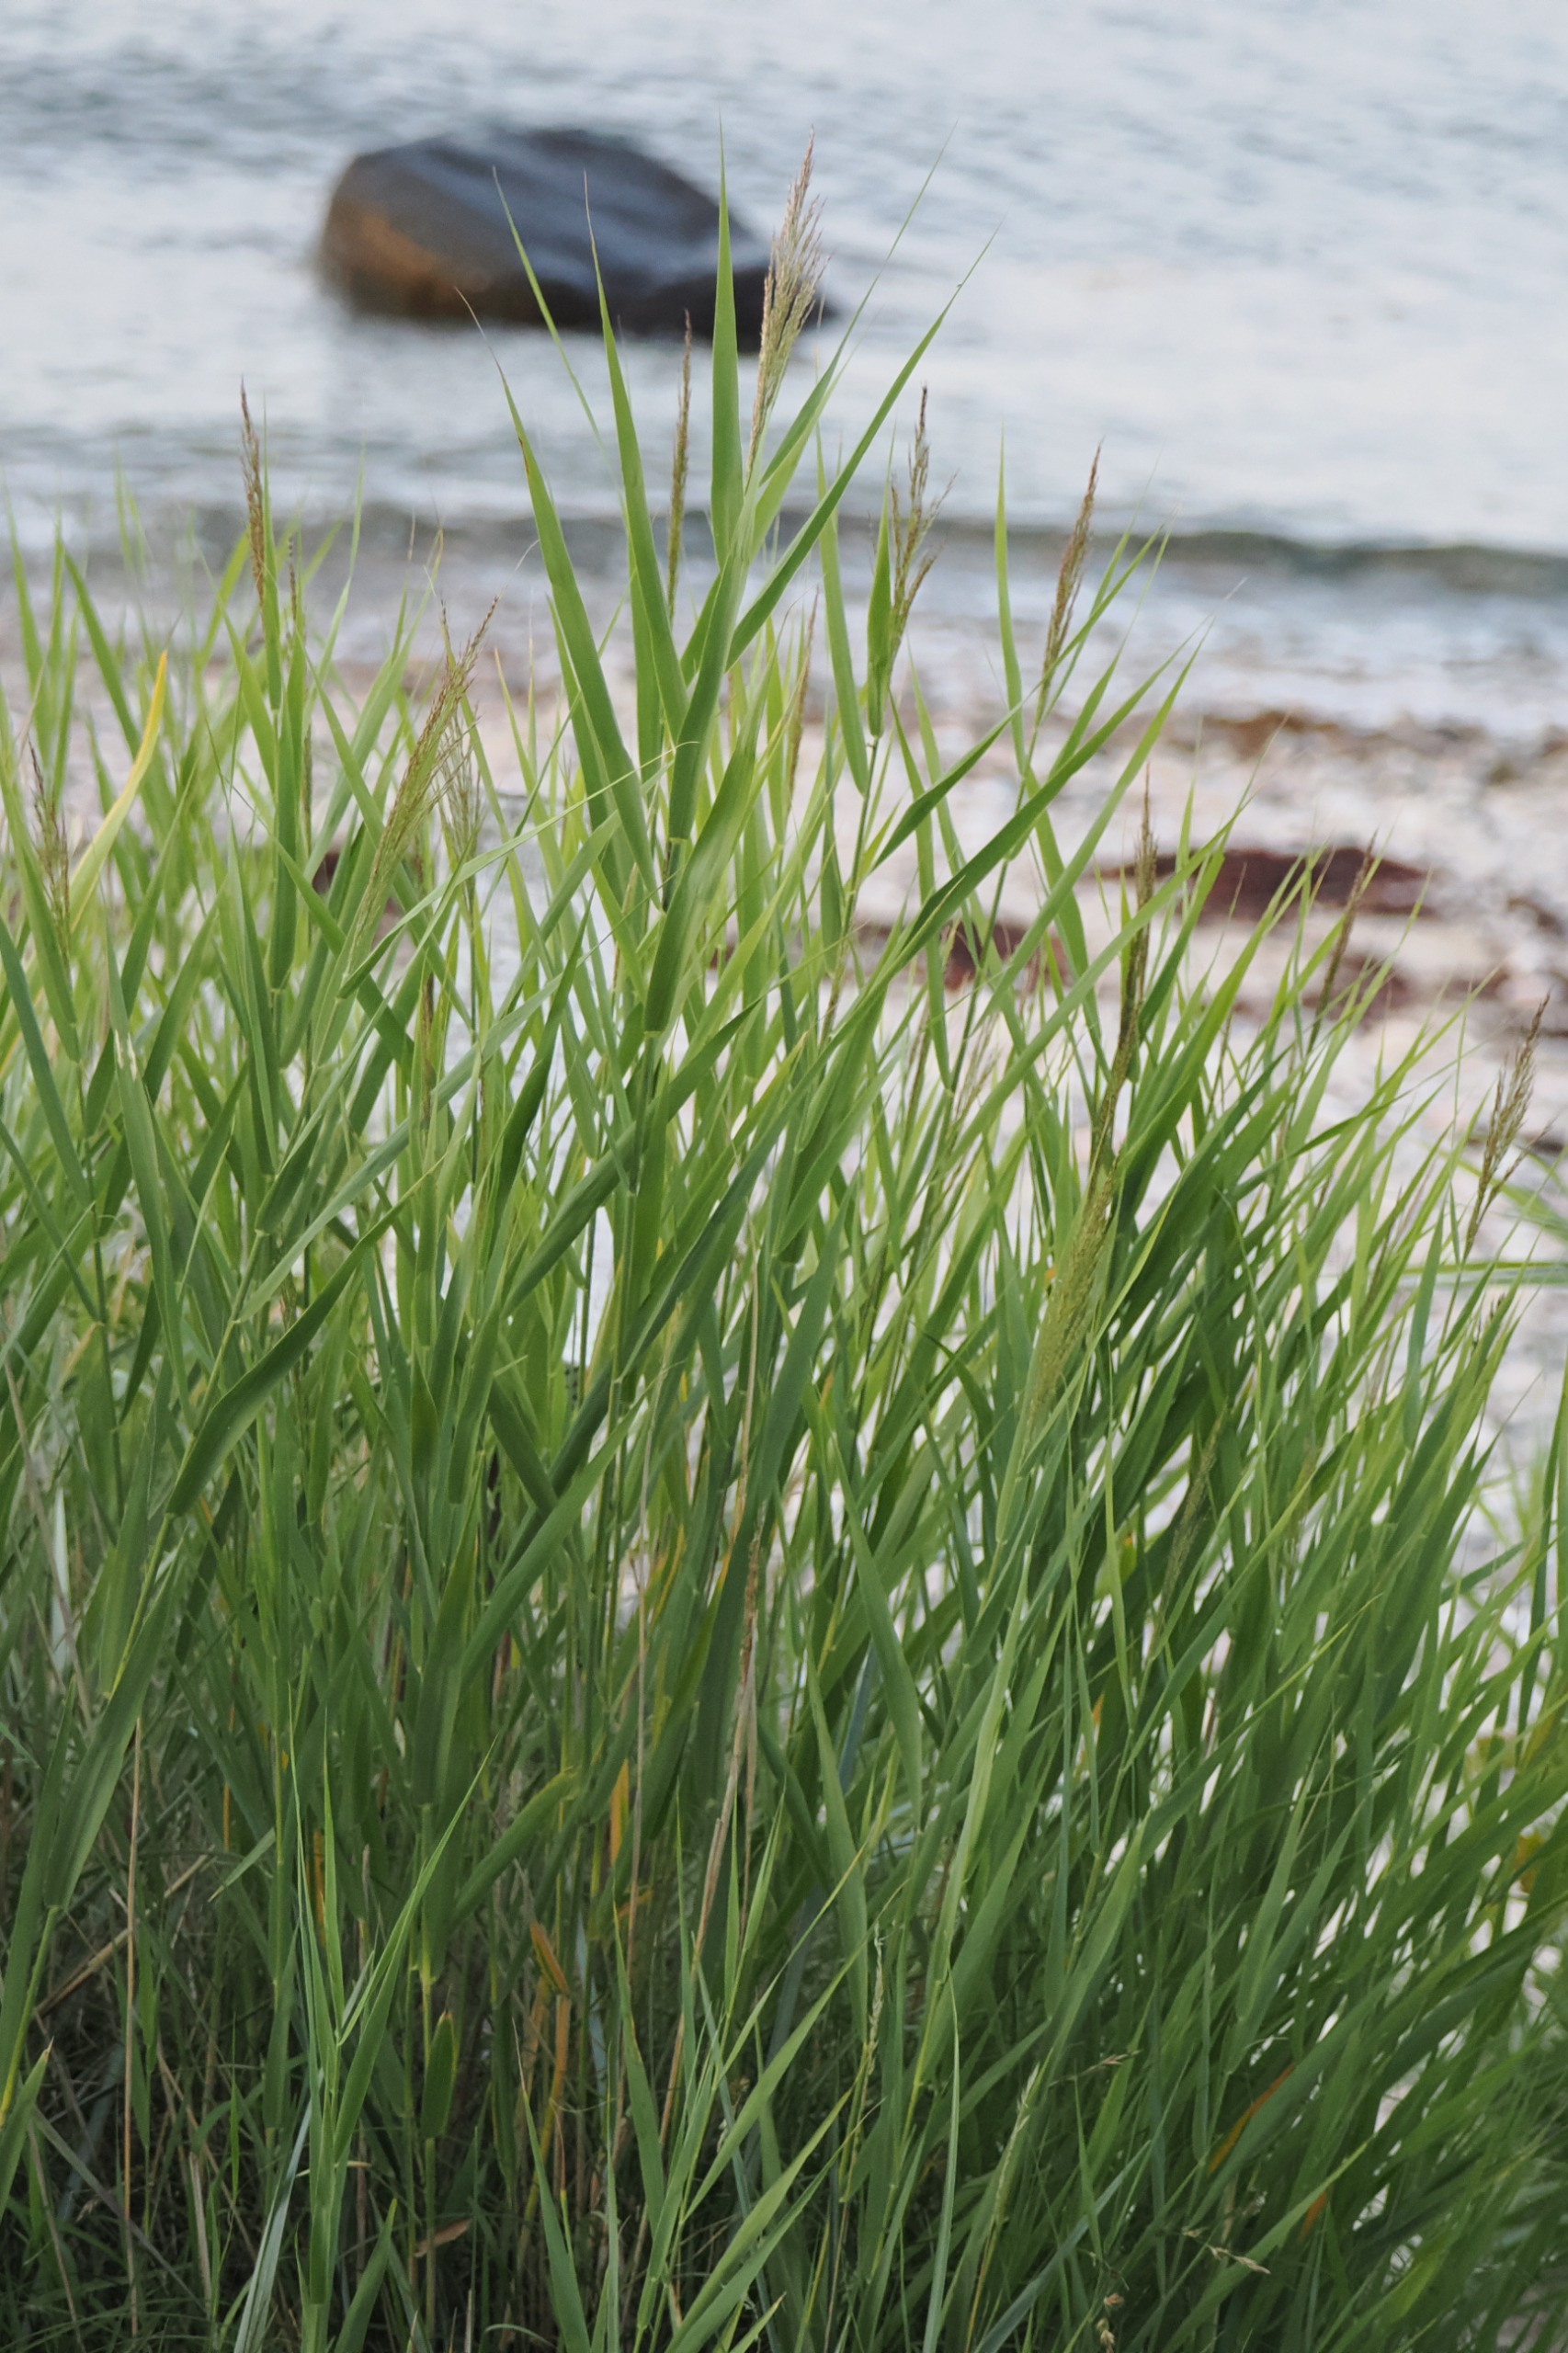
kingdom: Plantae
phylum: Tracheophyta
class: Liliopsida
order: Poales
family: Poaceae
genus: Phragmites
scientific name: Phragmites australis
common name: Tagrør
